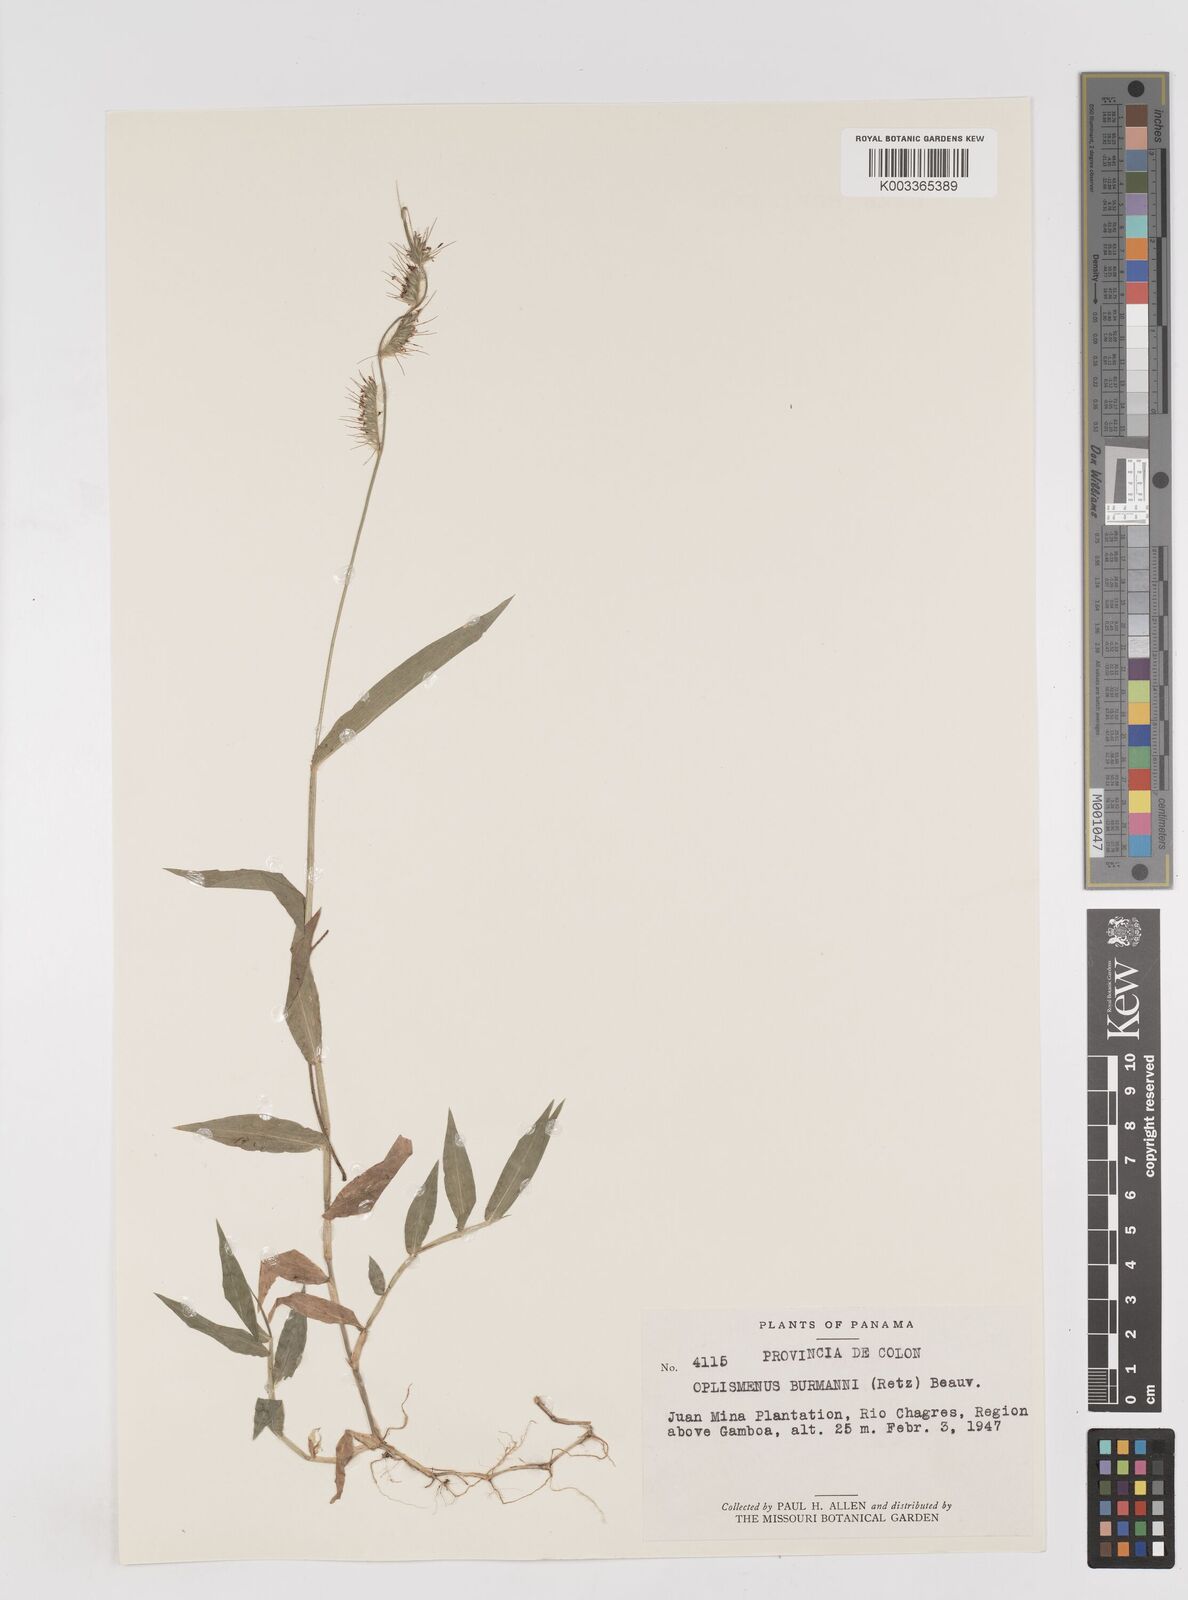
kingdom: Plantae
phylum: Tracheophyta
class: Liliopsida
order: Poales
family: Poaceae
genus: Oplismenus
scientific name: Oplismenus hirtellus
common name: Basketgrass
